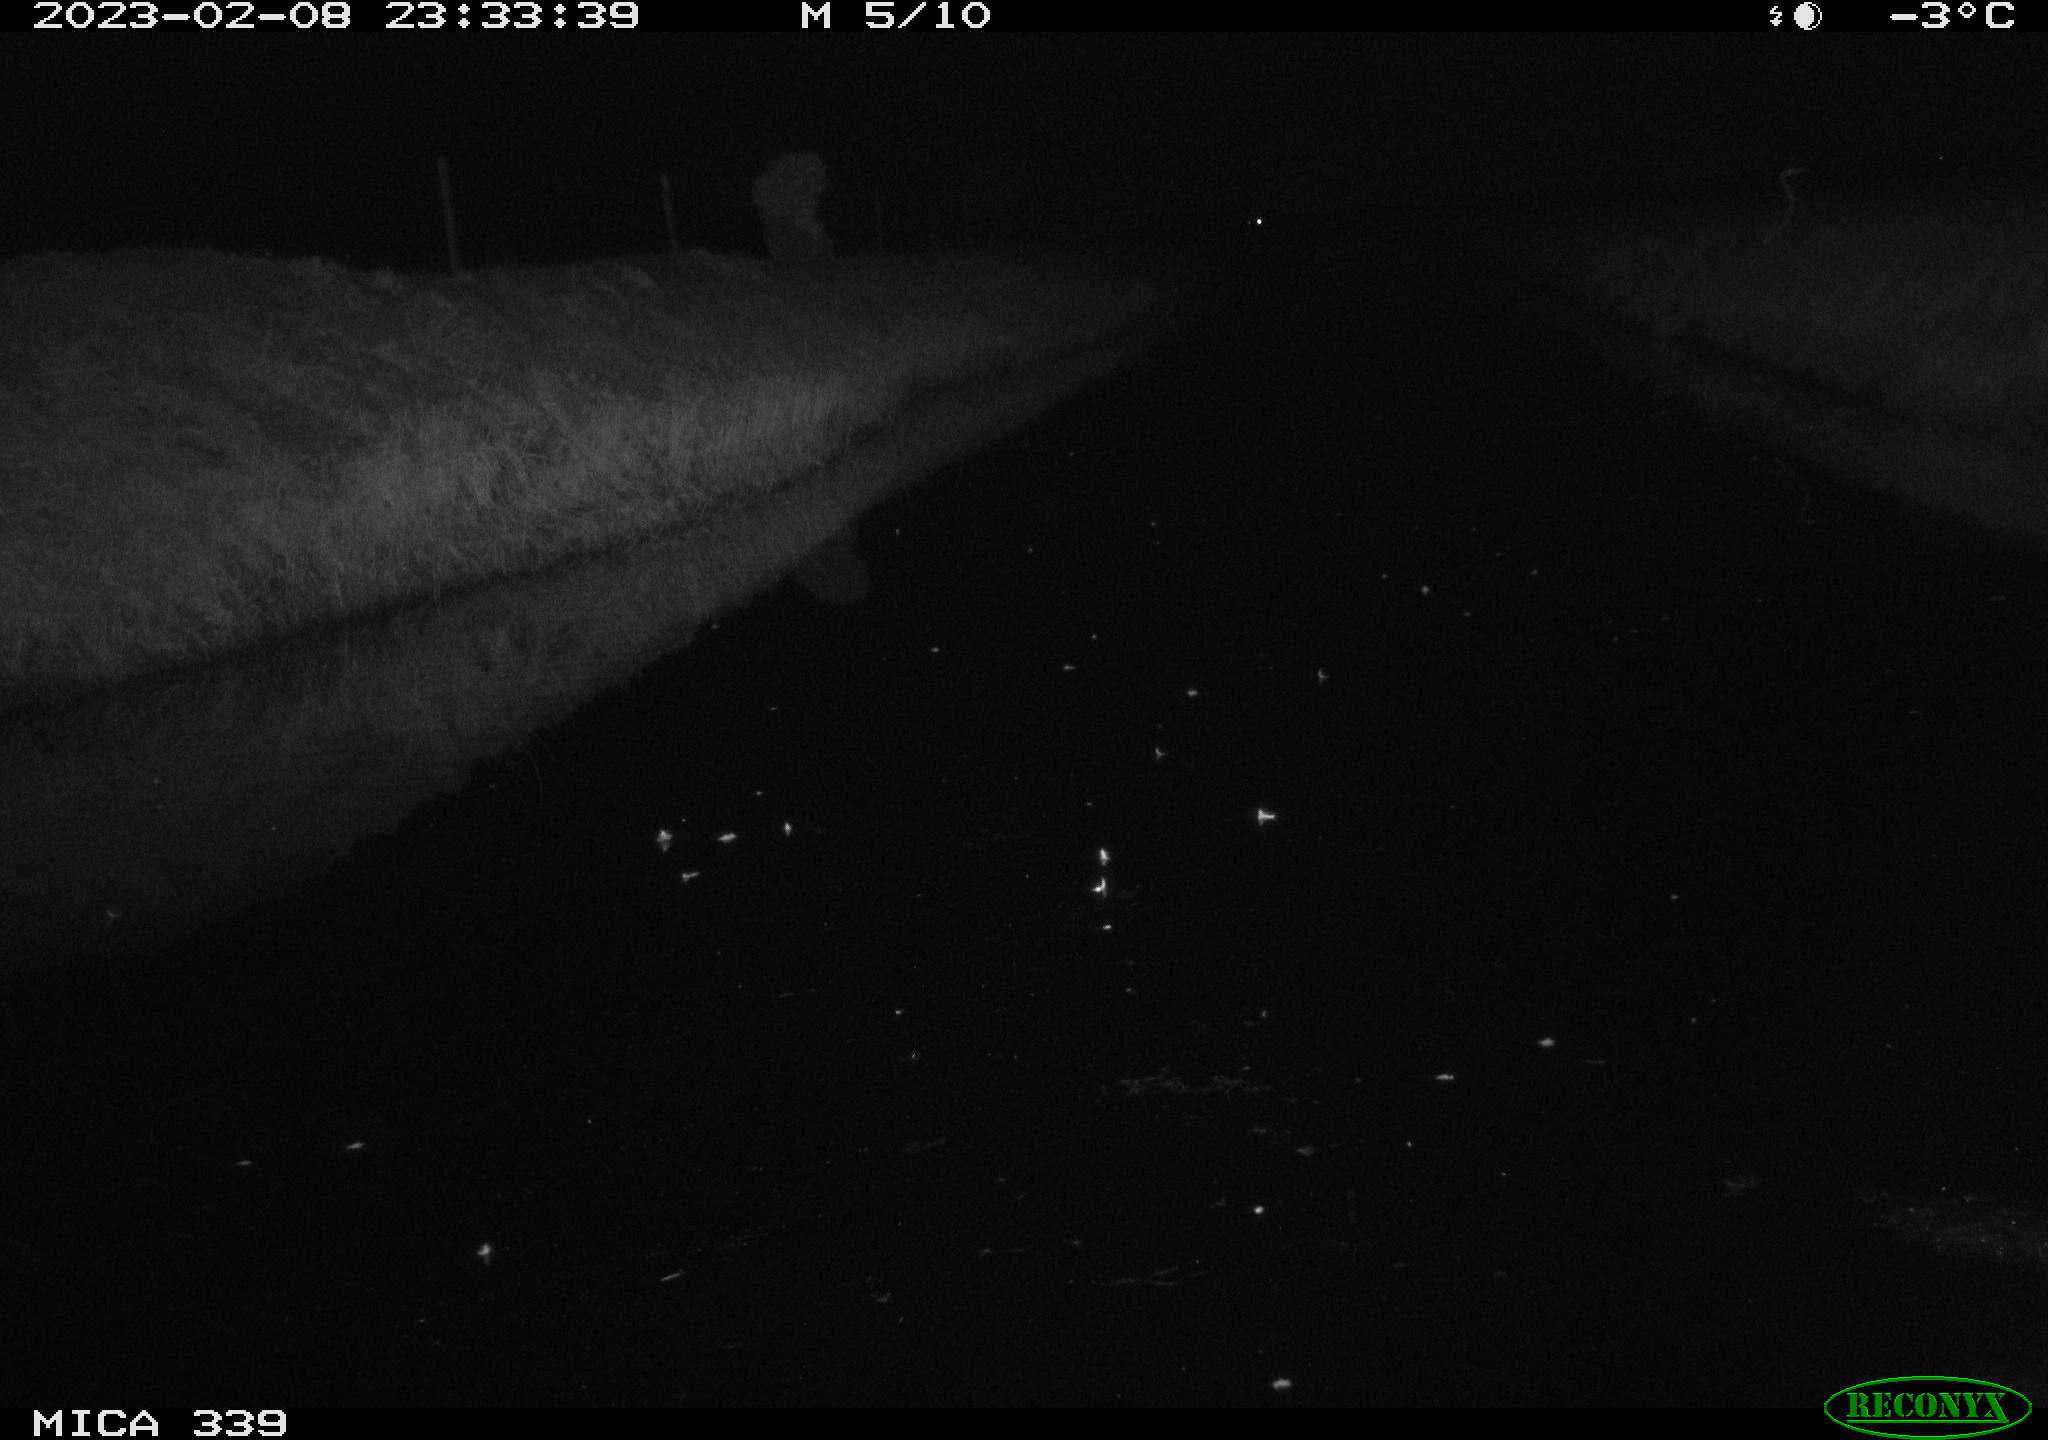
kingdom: Animalia
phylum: Chordata
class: Aves
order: Pelecaniformes
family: Ardeidae
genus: Ardea
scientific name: Ardea cinerea
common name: Grey heron
